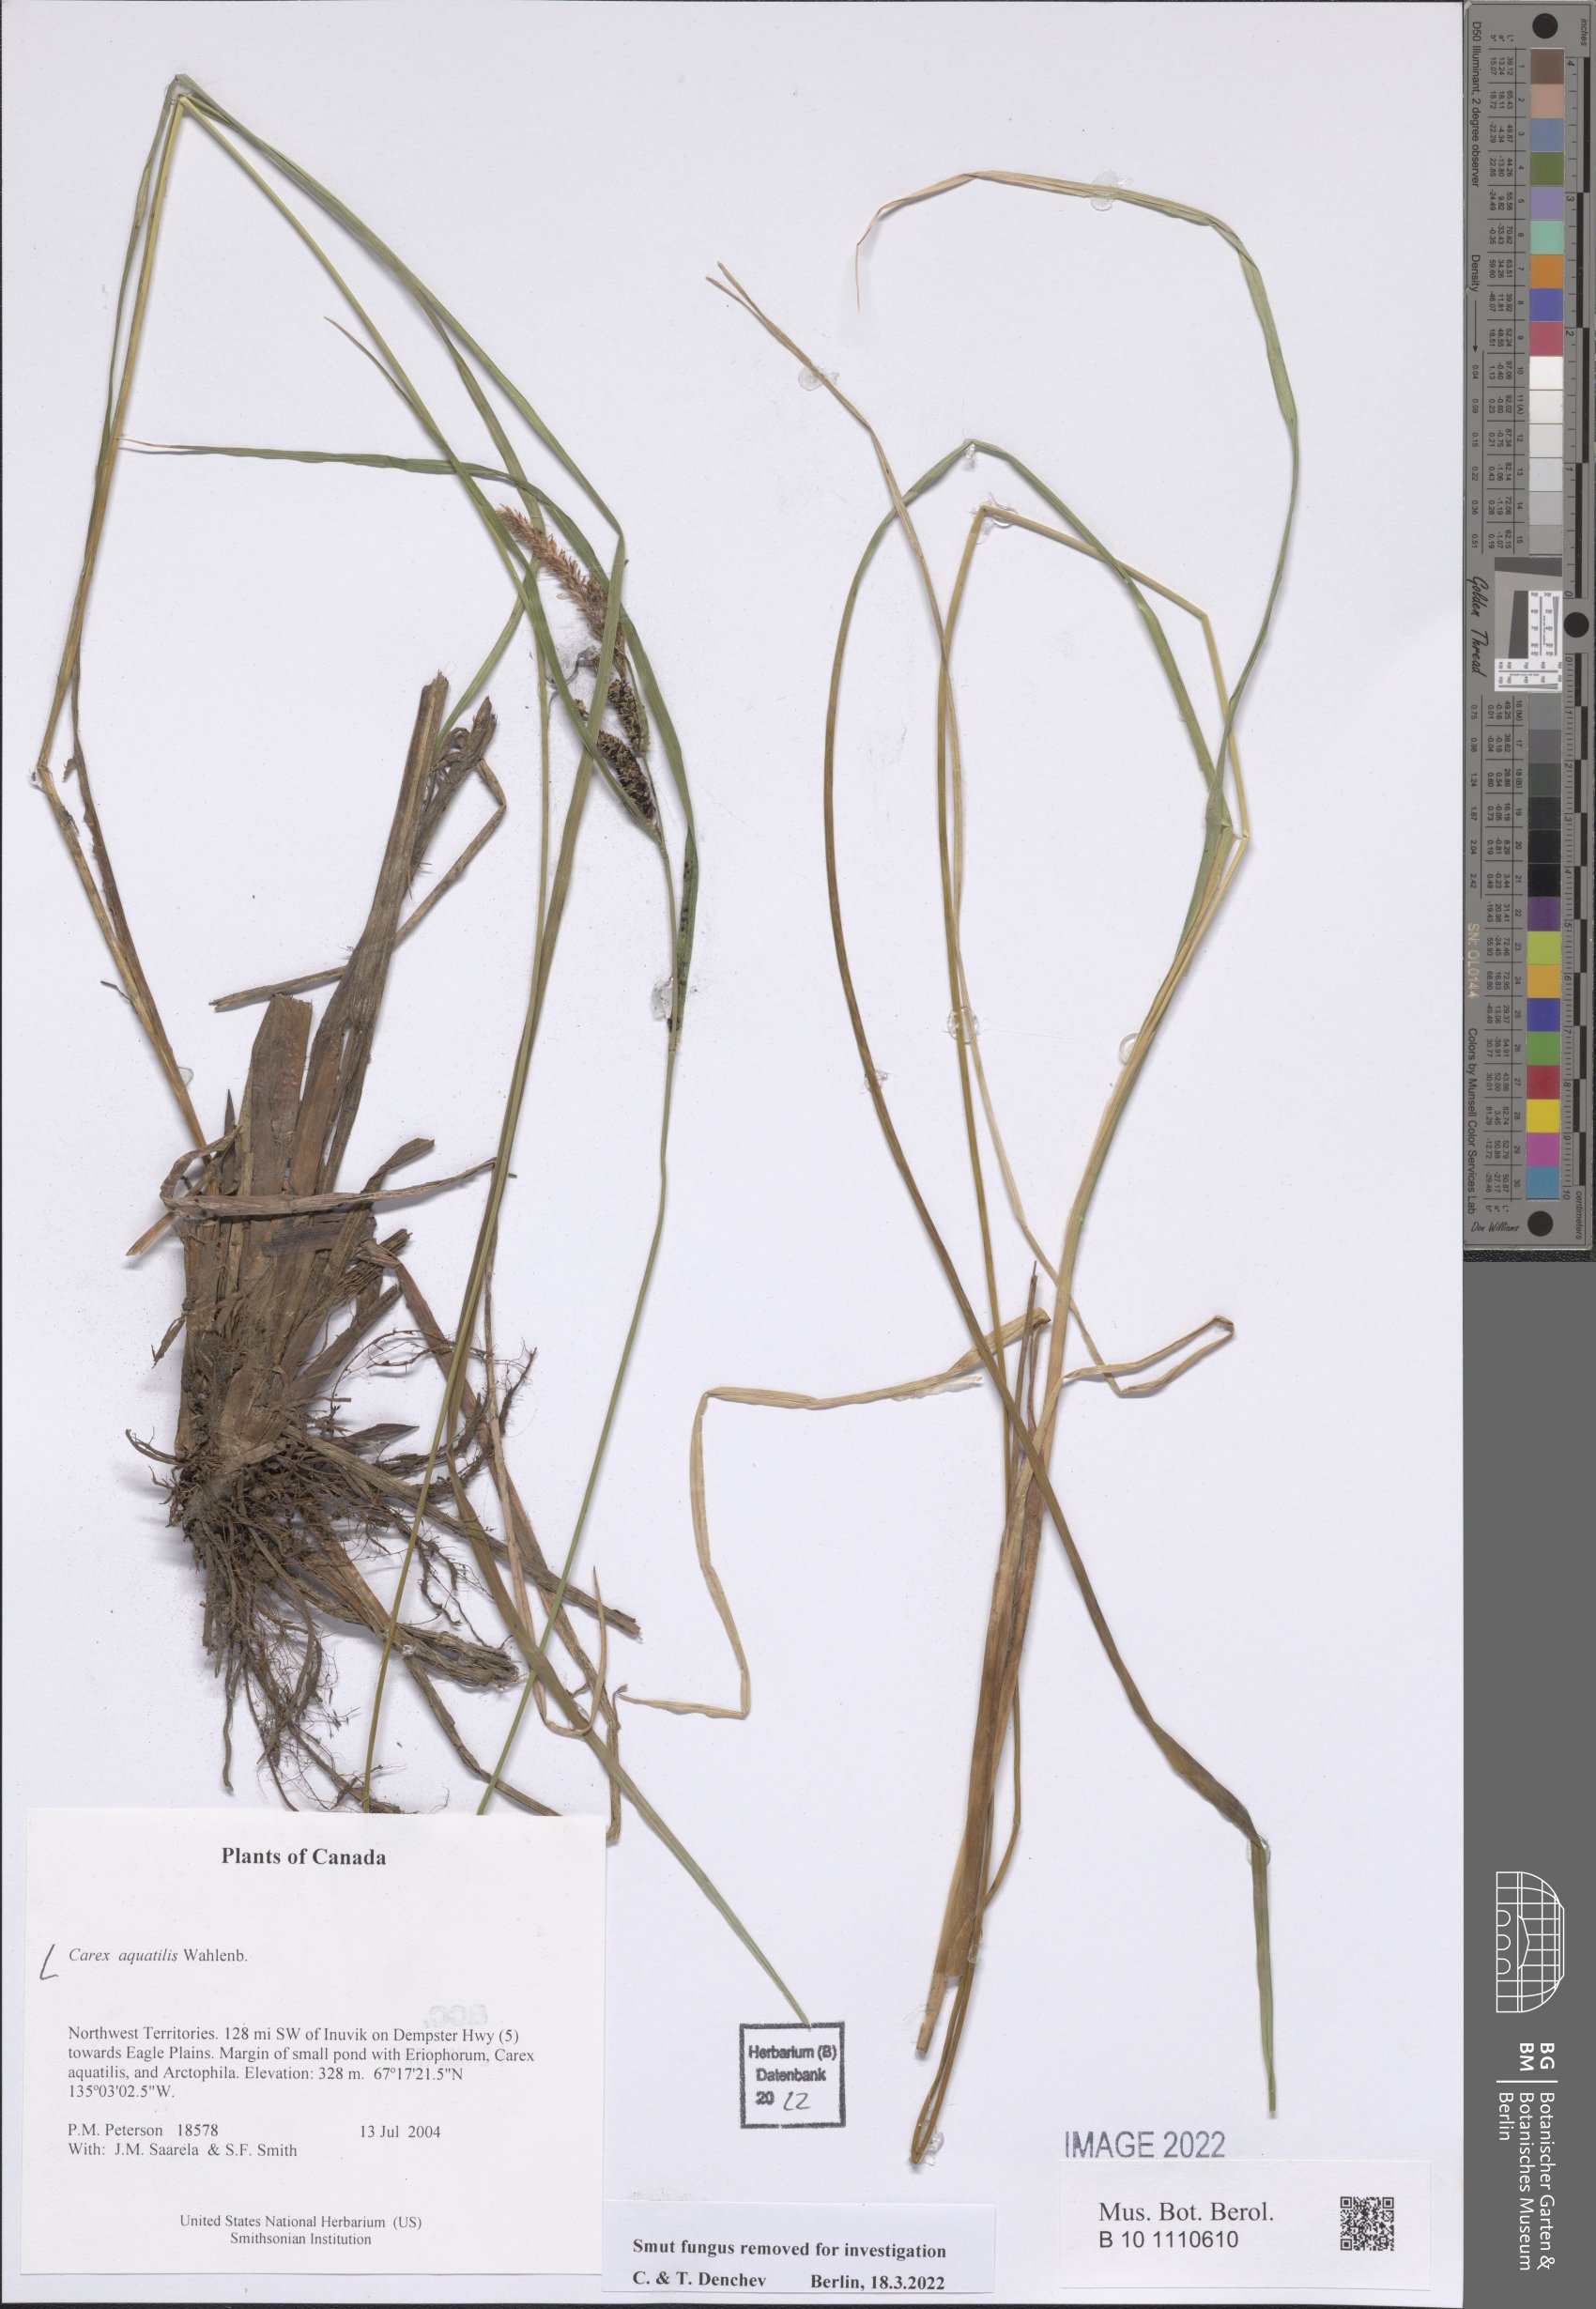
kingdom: Plantae
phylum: Tracheophyta
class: Liliopsida
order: Poales
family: Cyperaceae
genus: Carex
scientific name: Carex aquatilis
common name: Water sedge
